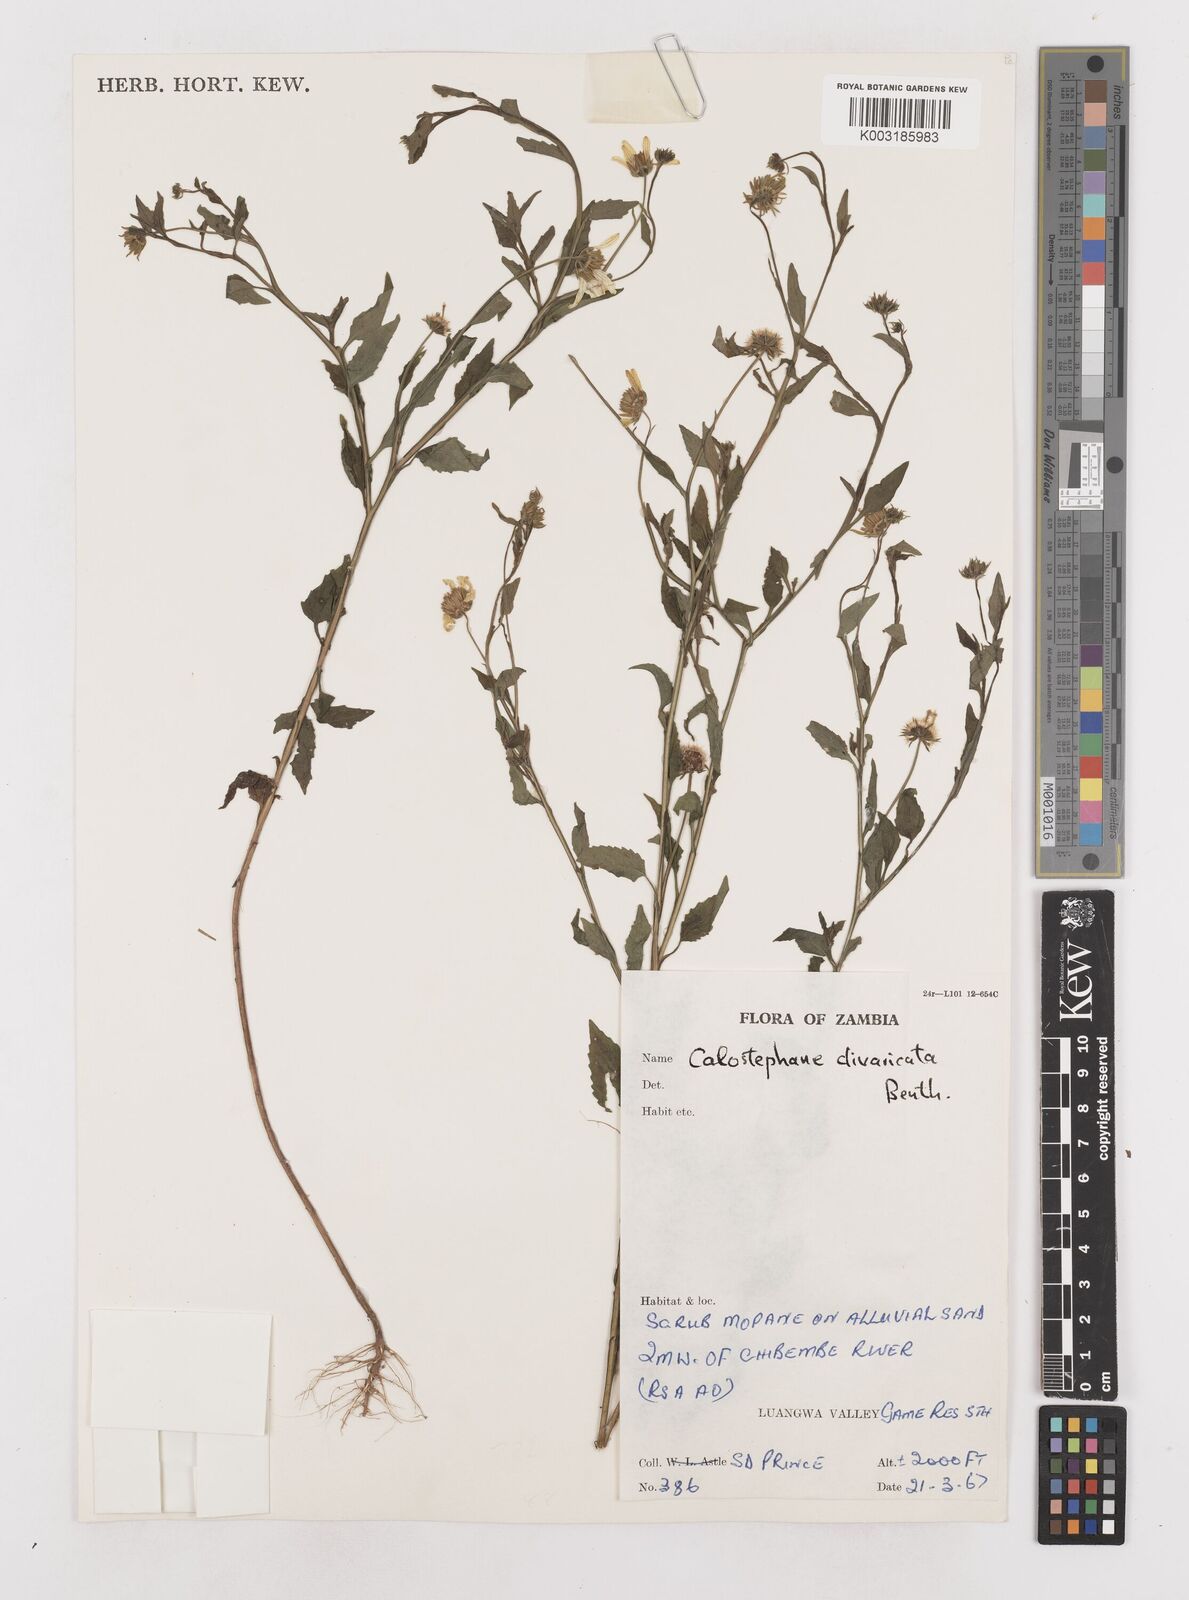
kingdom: Plantae
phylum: Tracheophyta
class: Magnoliopsida
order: Asterales
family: Asteraceae
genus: Calostephane
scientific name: Calostephane divaricata
